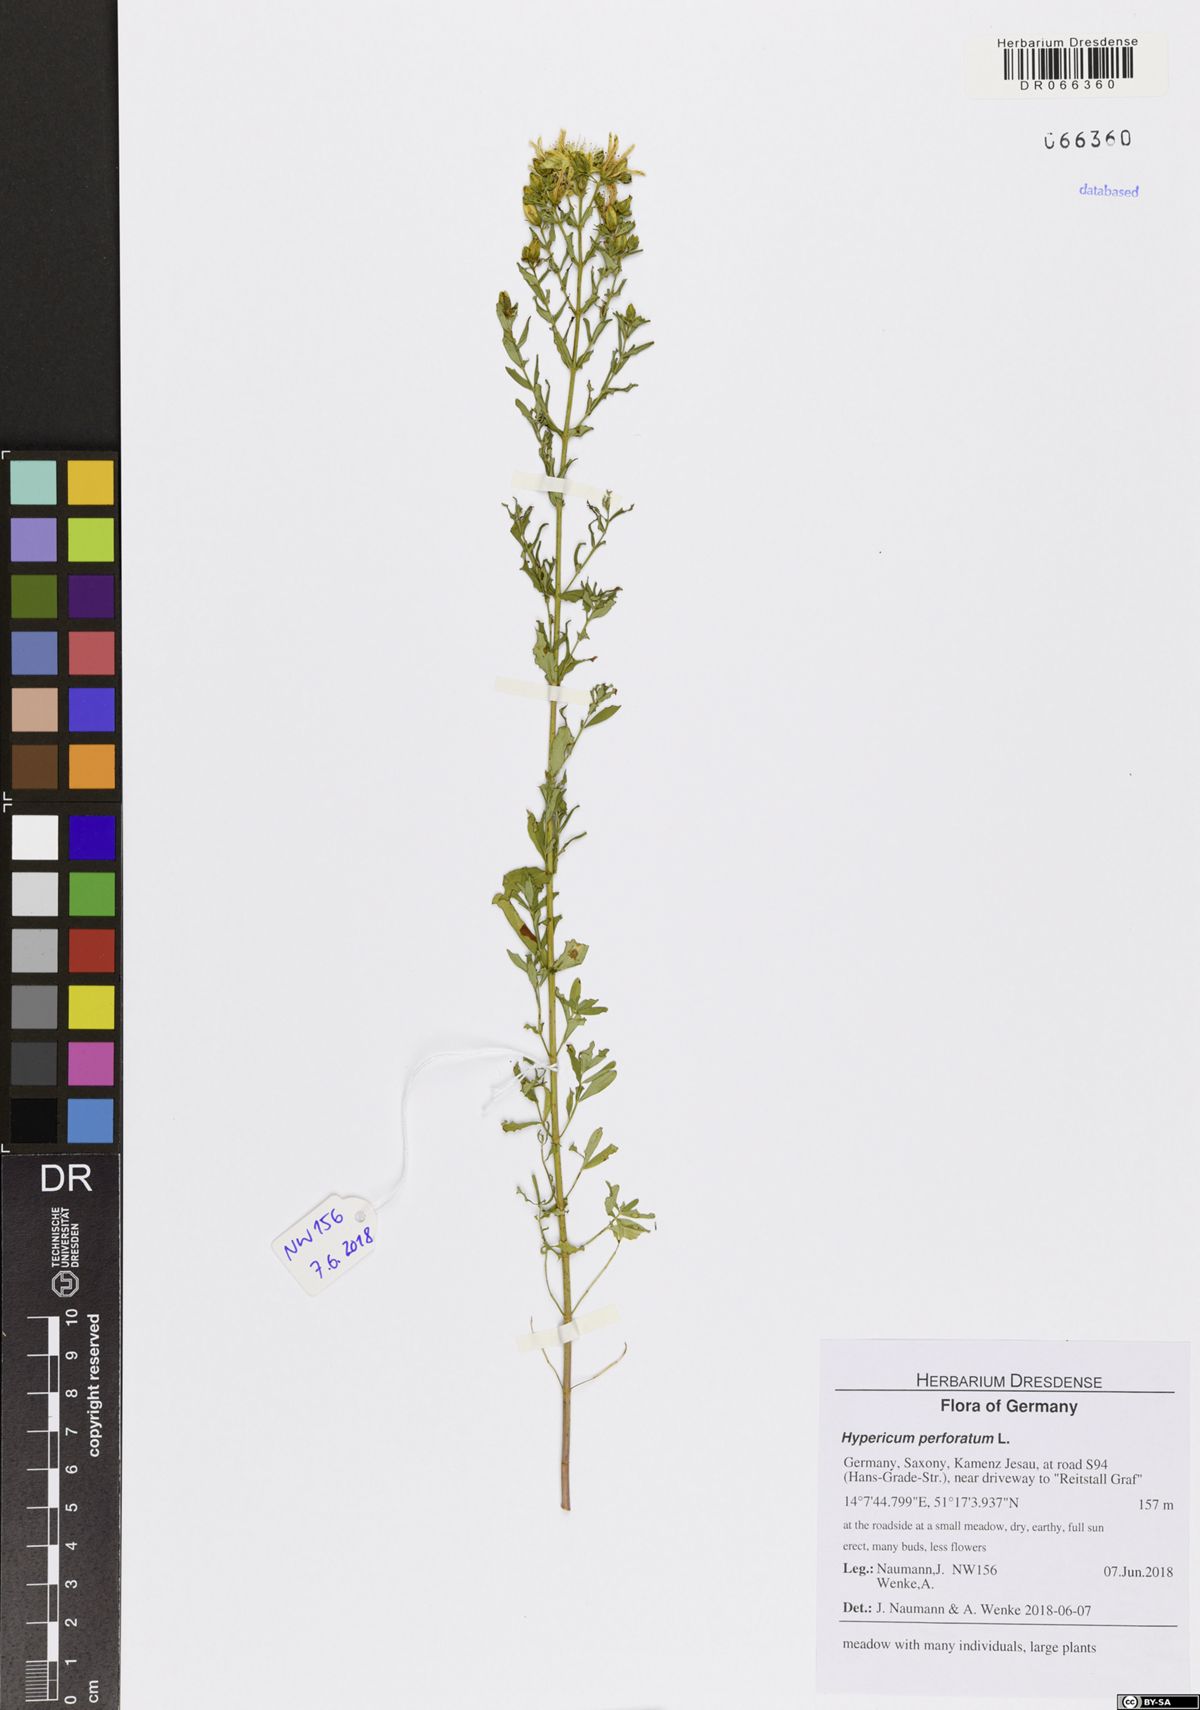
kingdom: Plantae
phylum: Tracheophyta
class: Magnoliopsida
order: Malpighiales
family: Hypericaceae
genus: Hypericum
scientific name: Hypericum perforatum
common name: Common st. johnswort
